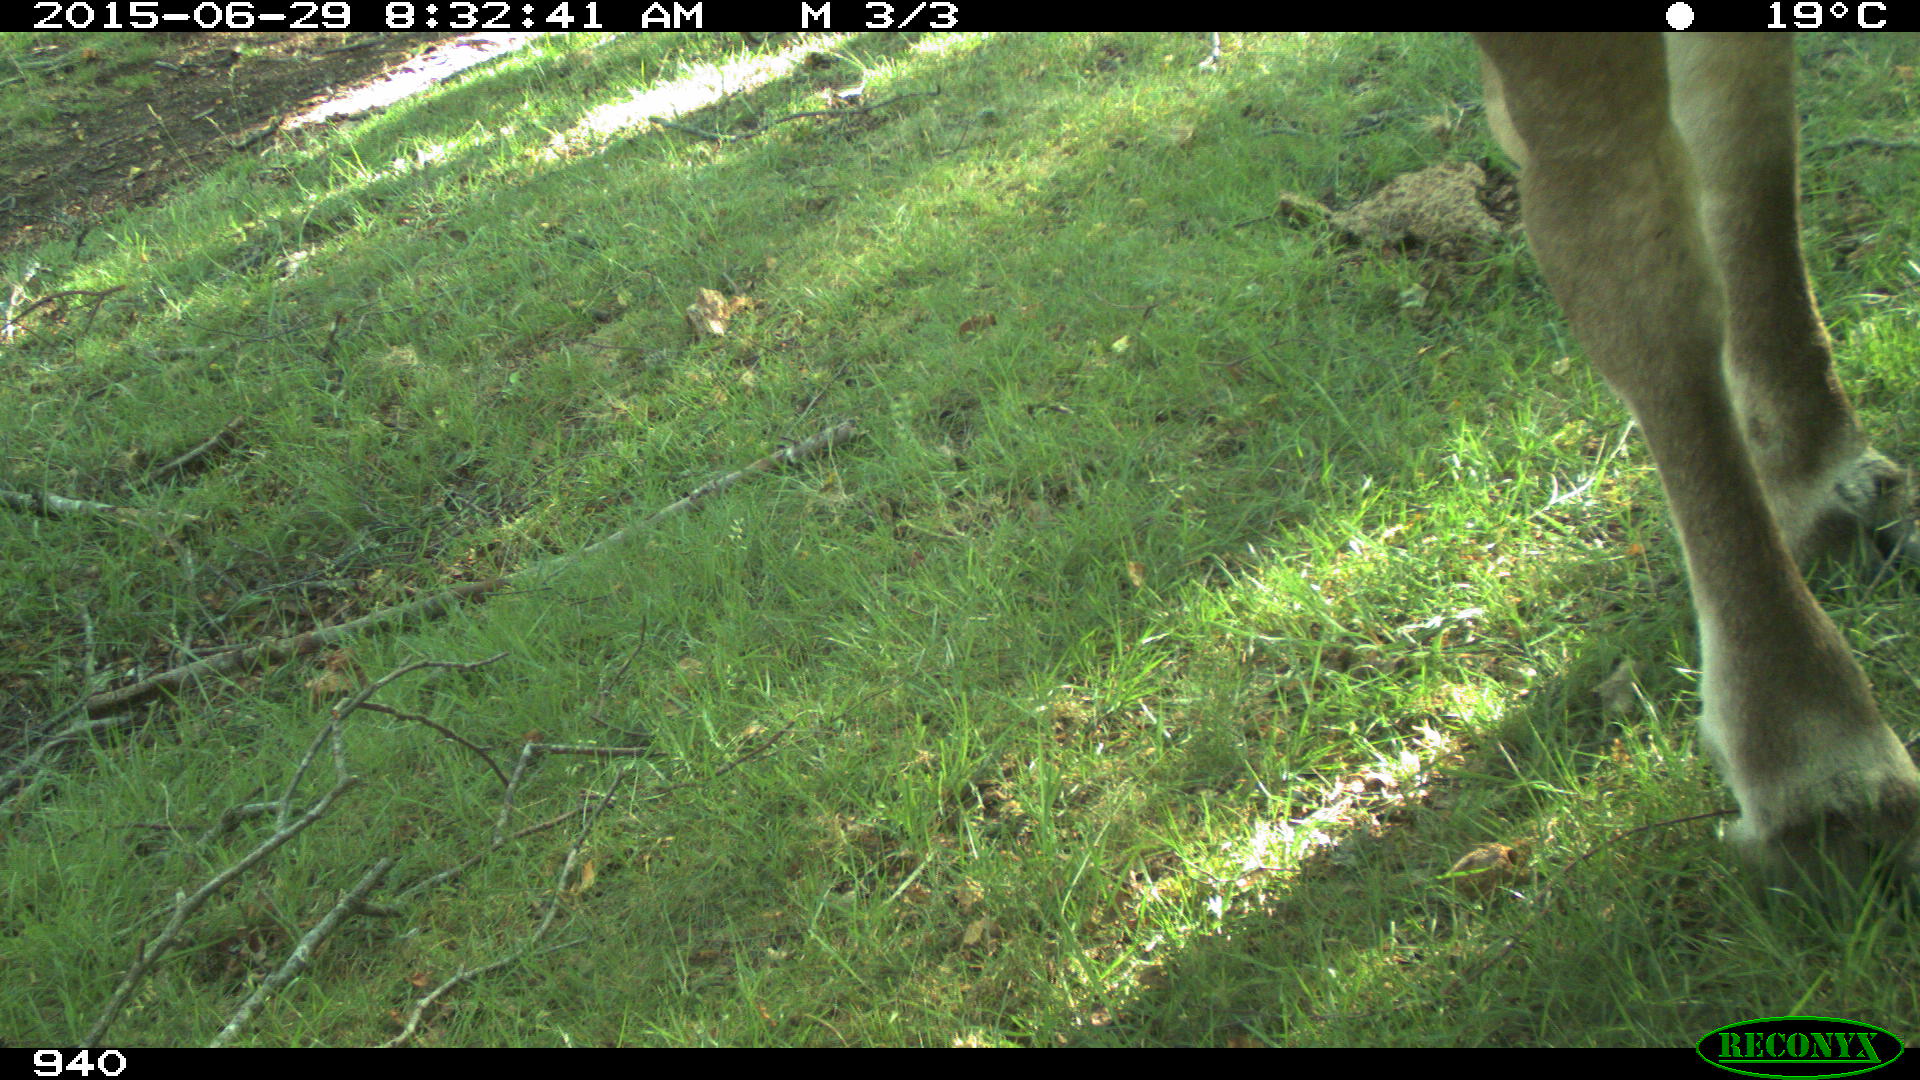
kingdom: Animalia
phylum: Chordata
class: Mammalia
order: Perissodactyla
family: Equidae
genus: Equus
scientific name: Equus caballus
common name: Horse
